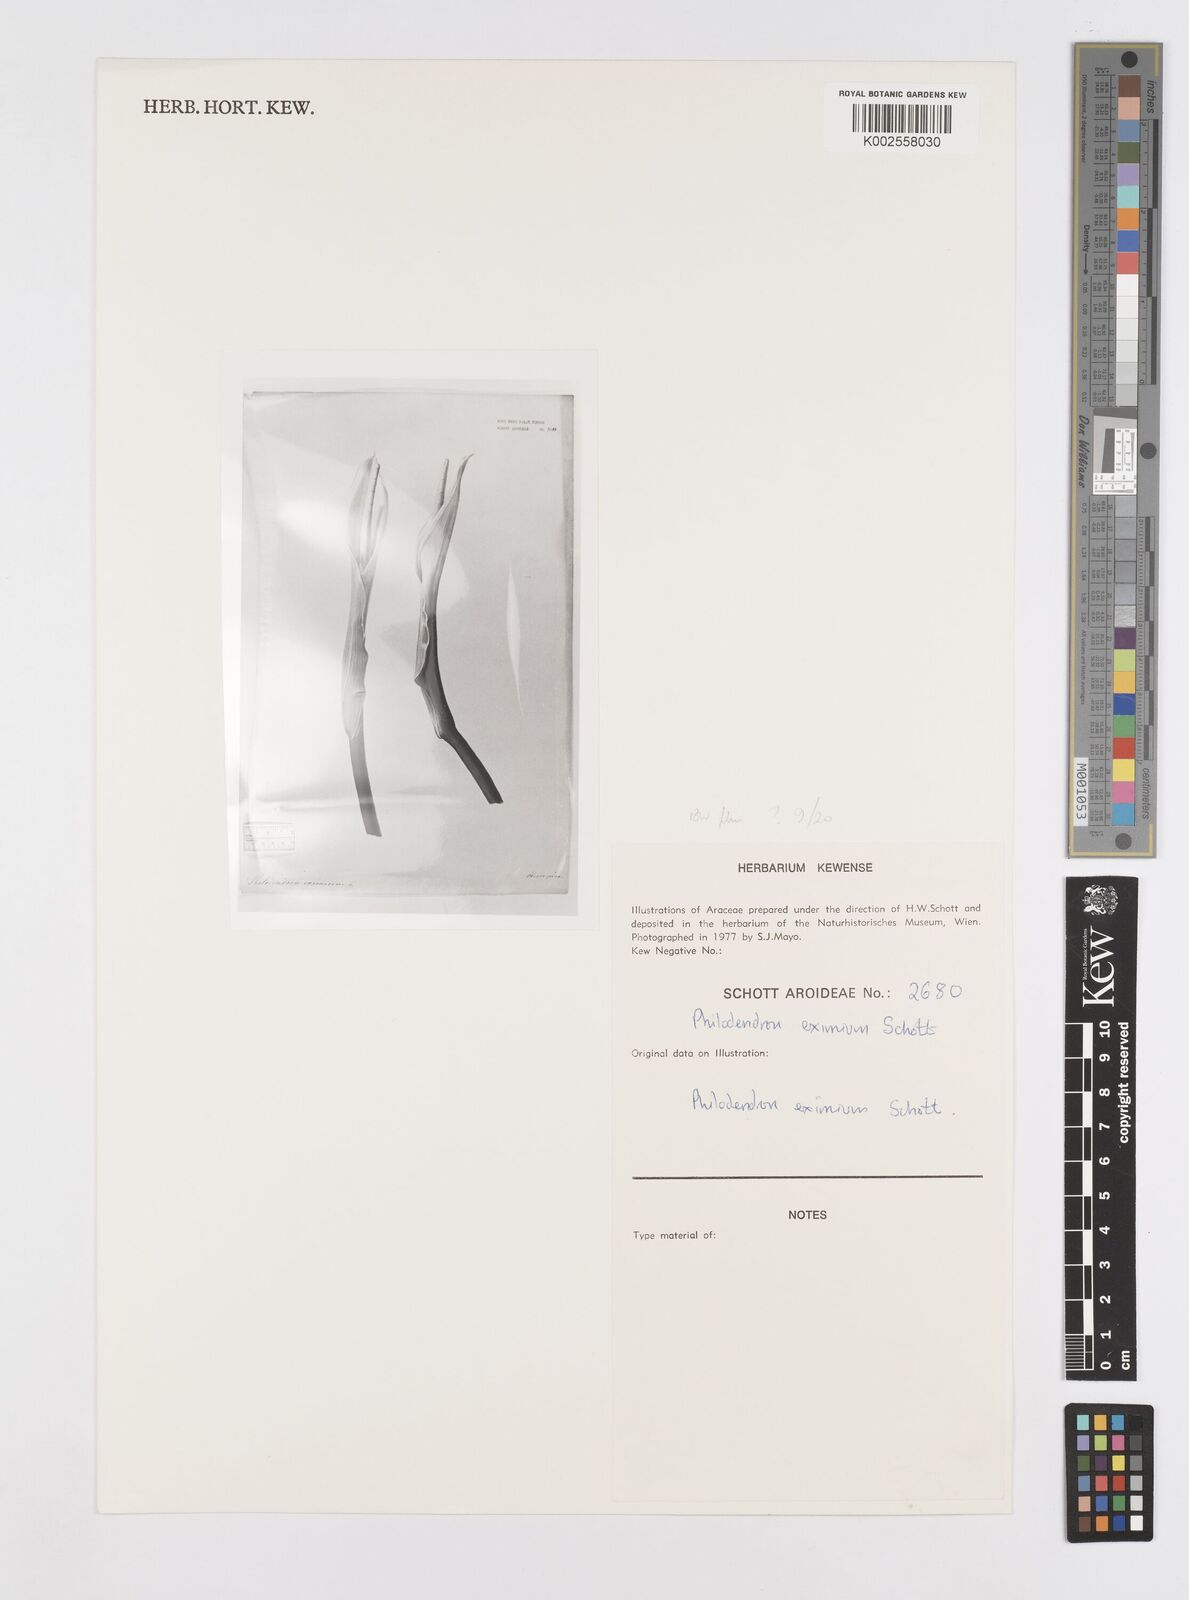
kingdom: Plantae
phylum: Tracheophyta
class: Liliopsida
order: Alismatales
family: Araceae
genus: Philodendron
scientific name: Philodendron eximium
